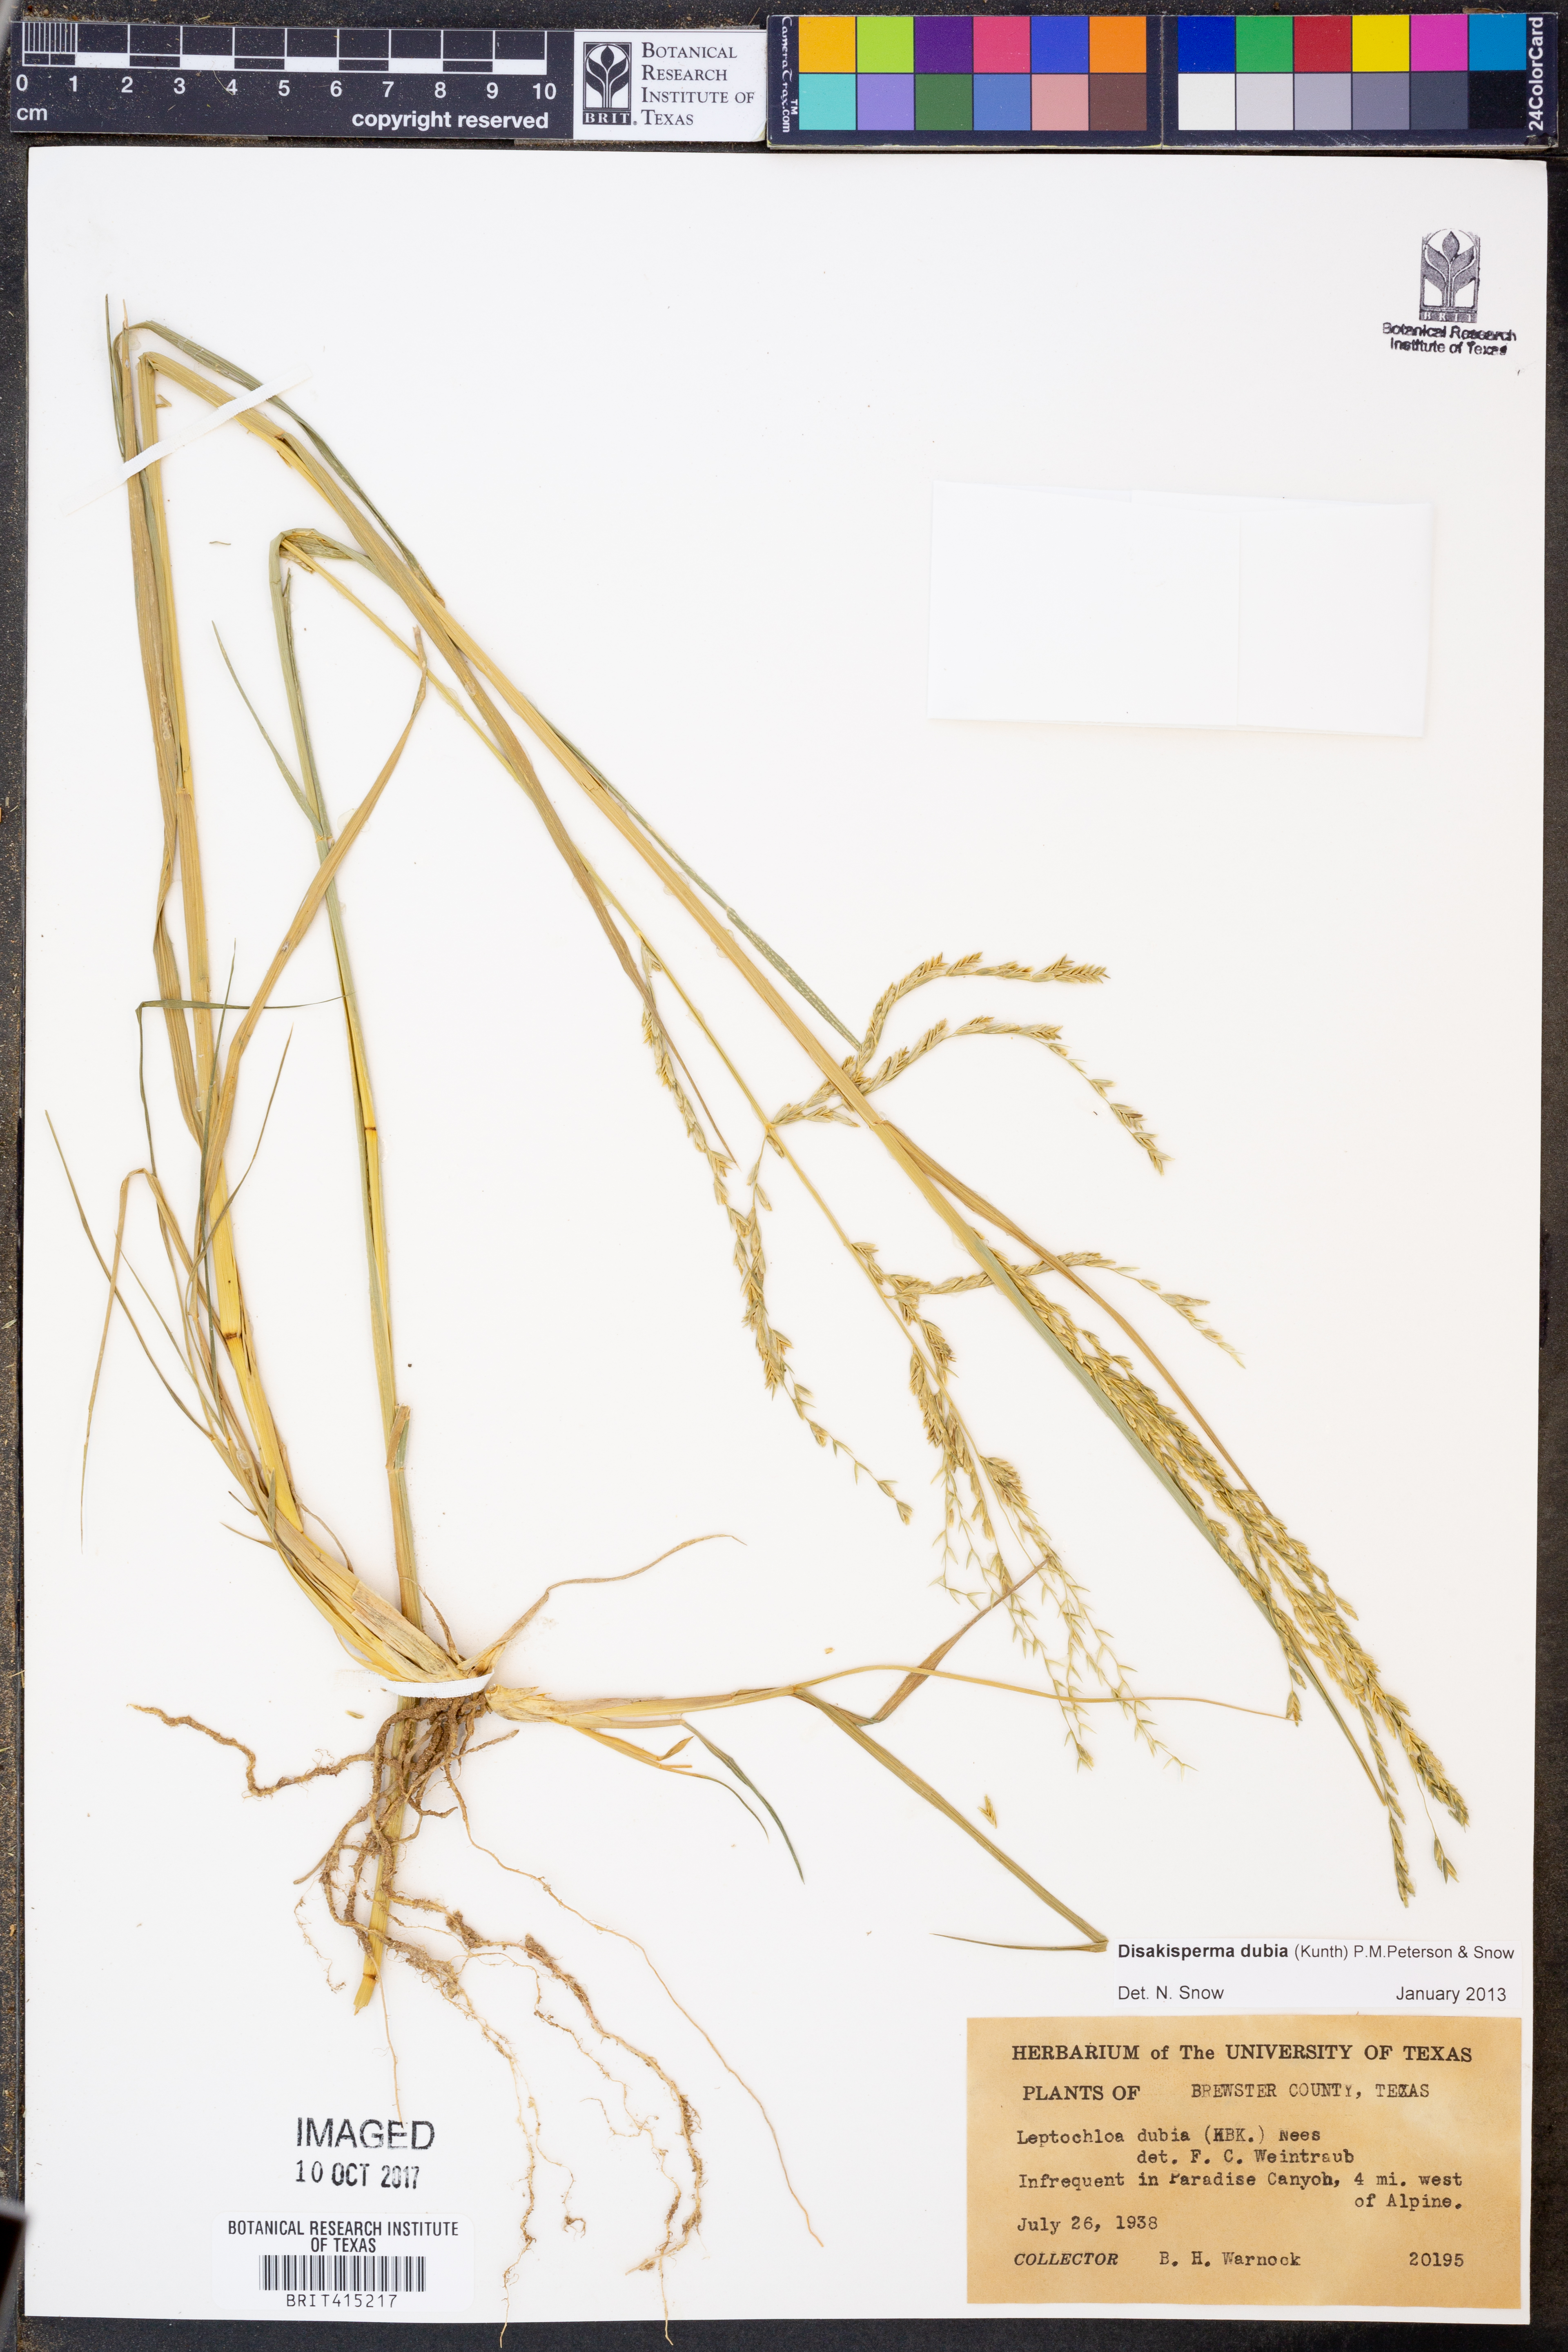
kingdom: Plantae
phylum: Tracheophyta
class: Liliopsida
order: Poales
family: Poaceae
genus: Disakisperma
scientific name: Disakisperma dubium
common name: Green sprangletop
